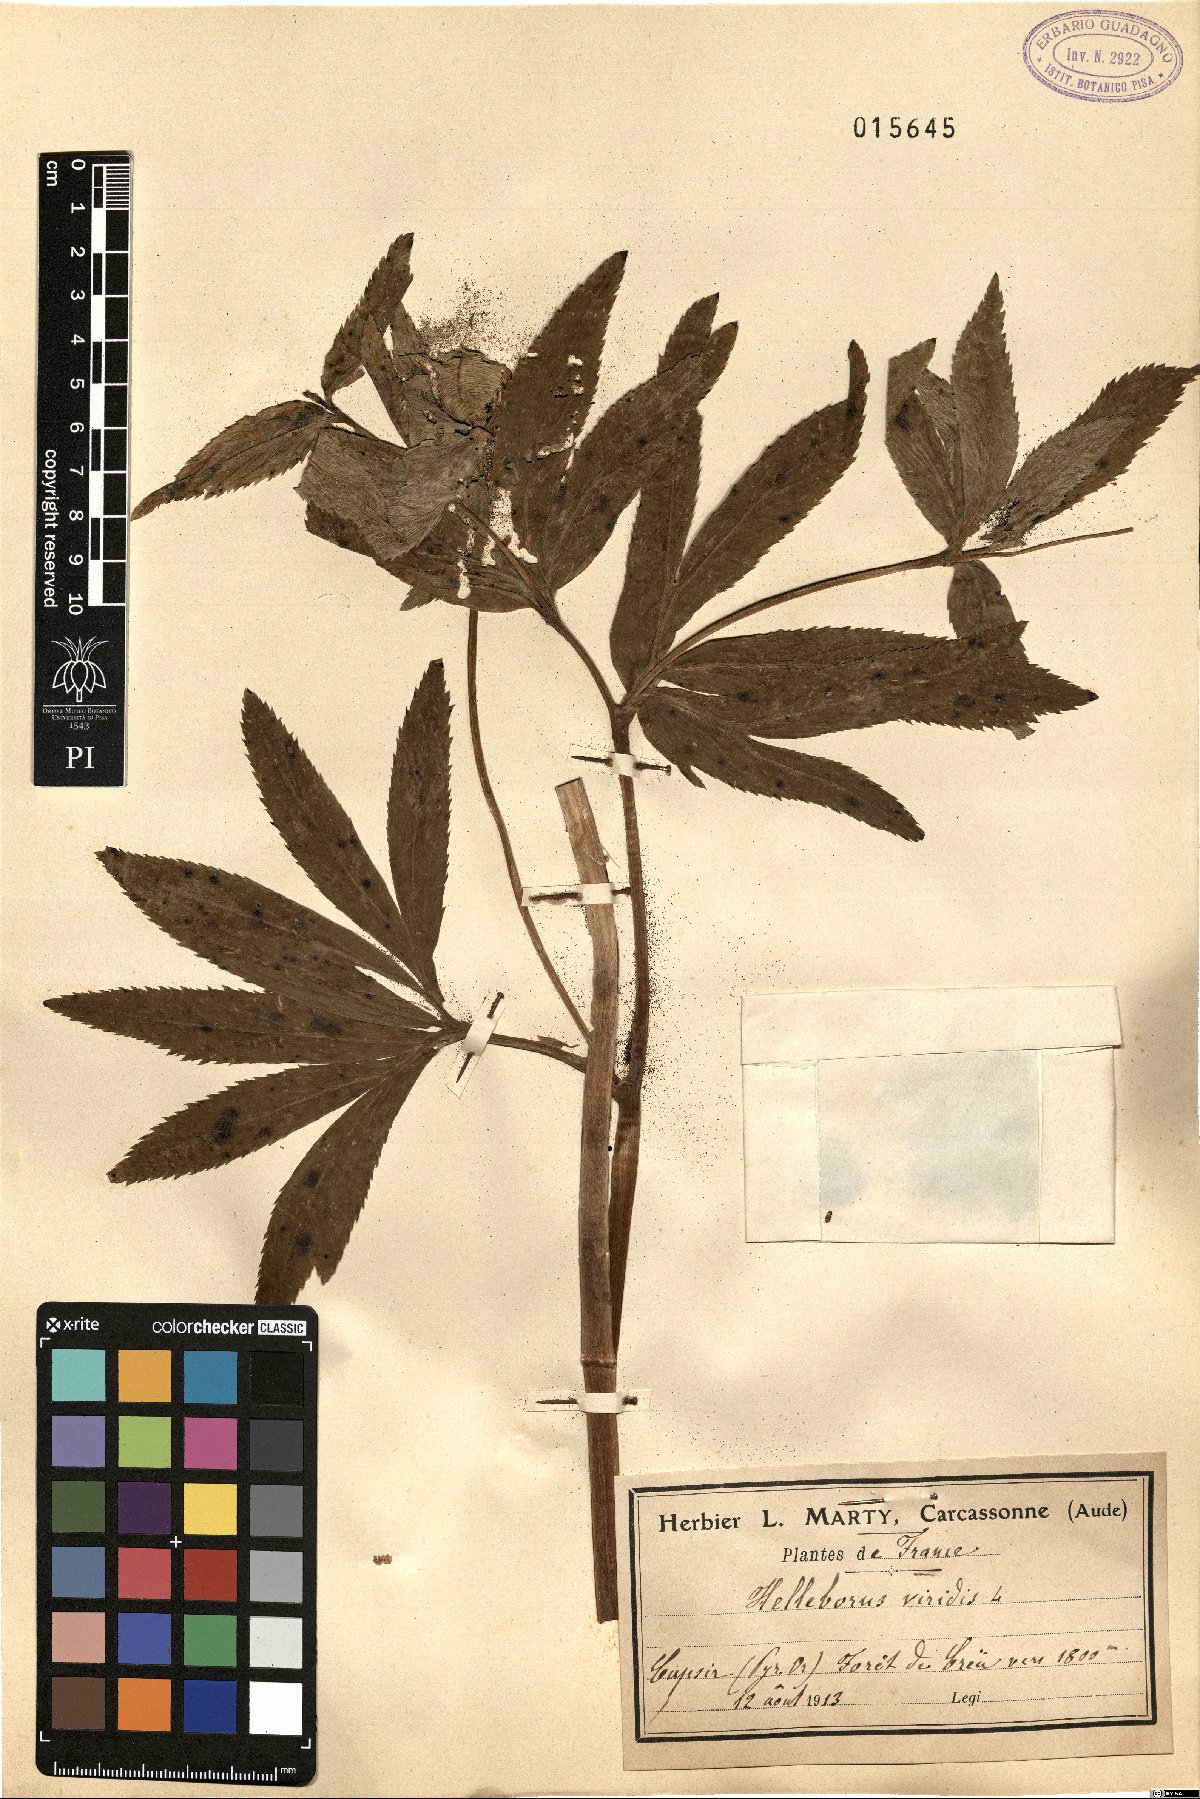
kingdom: Plantae
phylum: Tracheophyta
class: Magnoliopsida
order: Ranunculales
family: Ranunculaceae
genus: Helleborus
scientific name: Helleborus viridis
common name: Green hellebore
